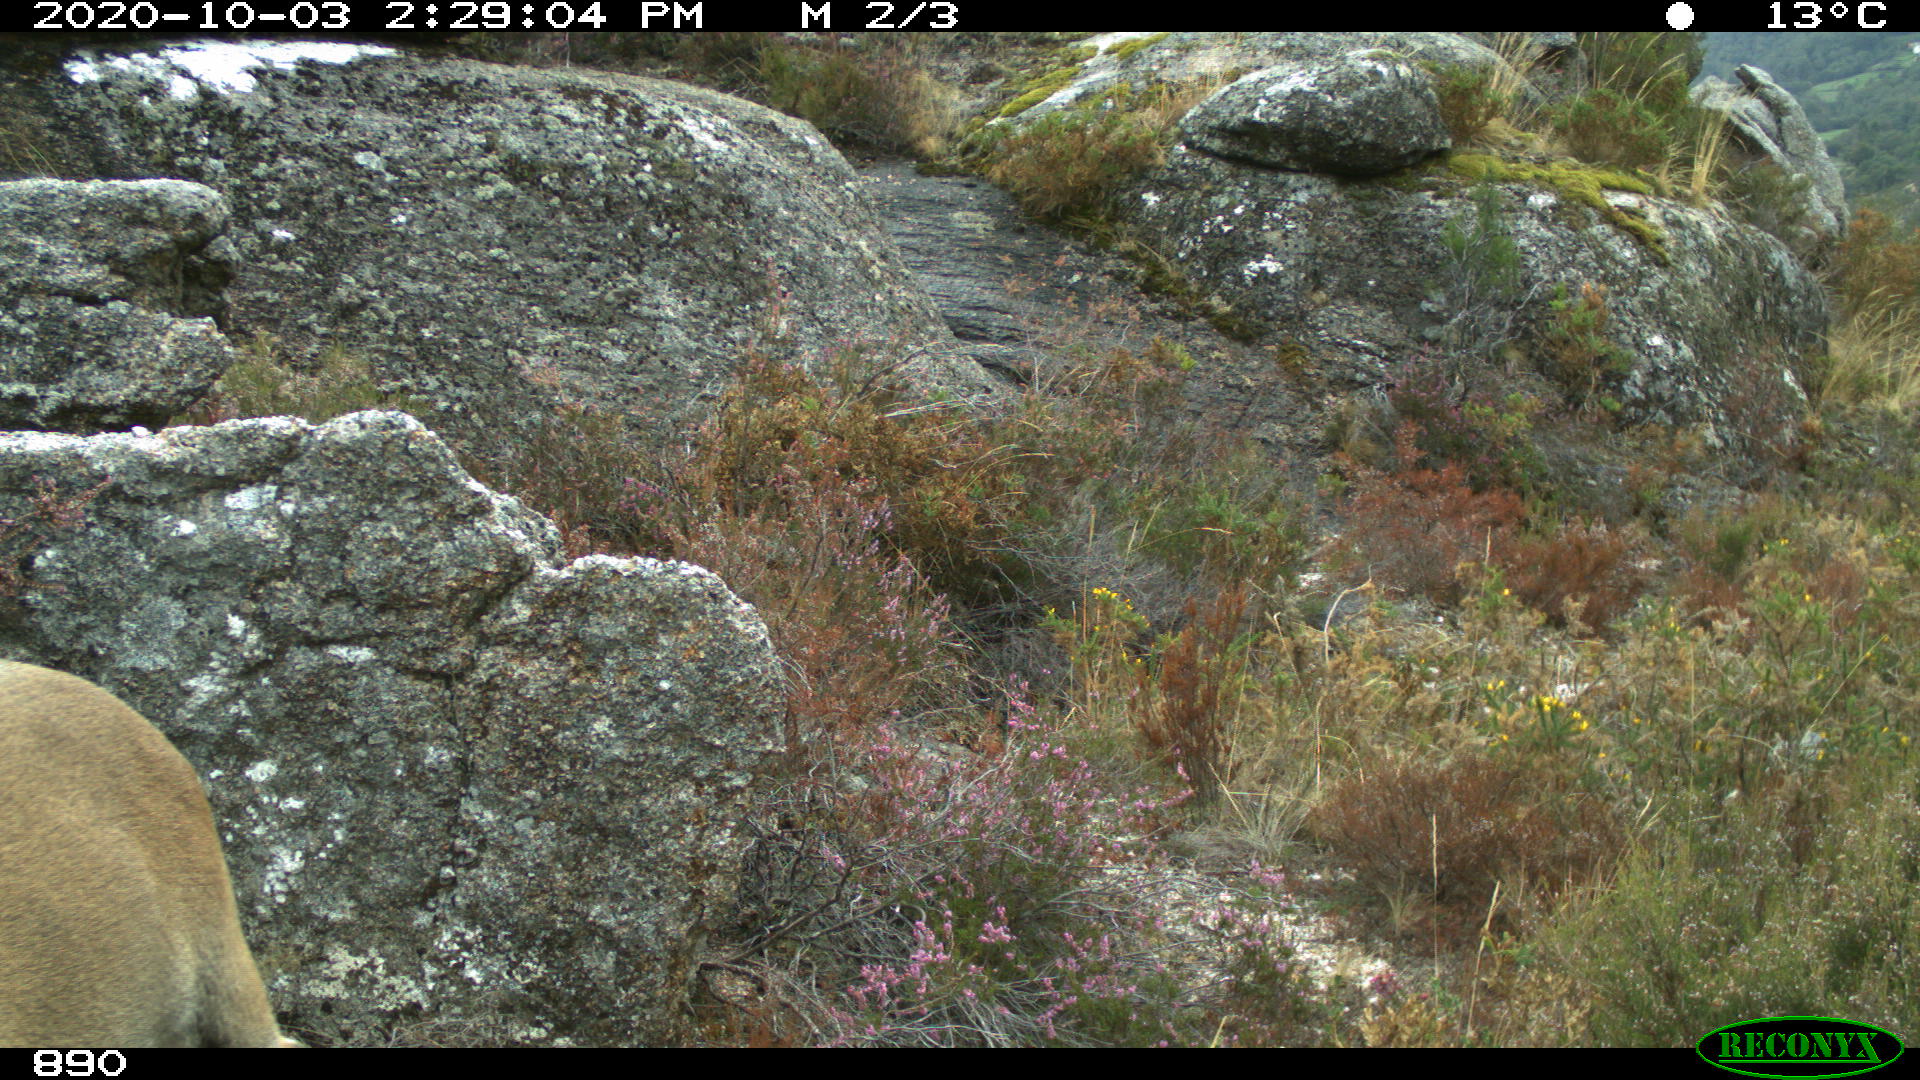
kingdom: Animalia
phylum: Chordata
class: Mammalia
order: Artiodactyla
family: Bovidae
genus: Capra
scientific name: Capra pyrenaica
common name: Spanish ibex
